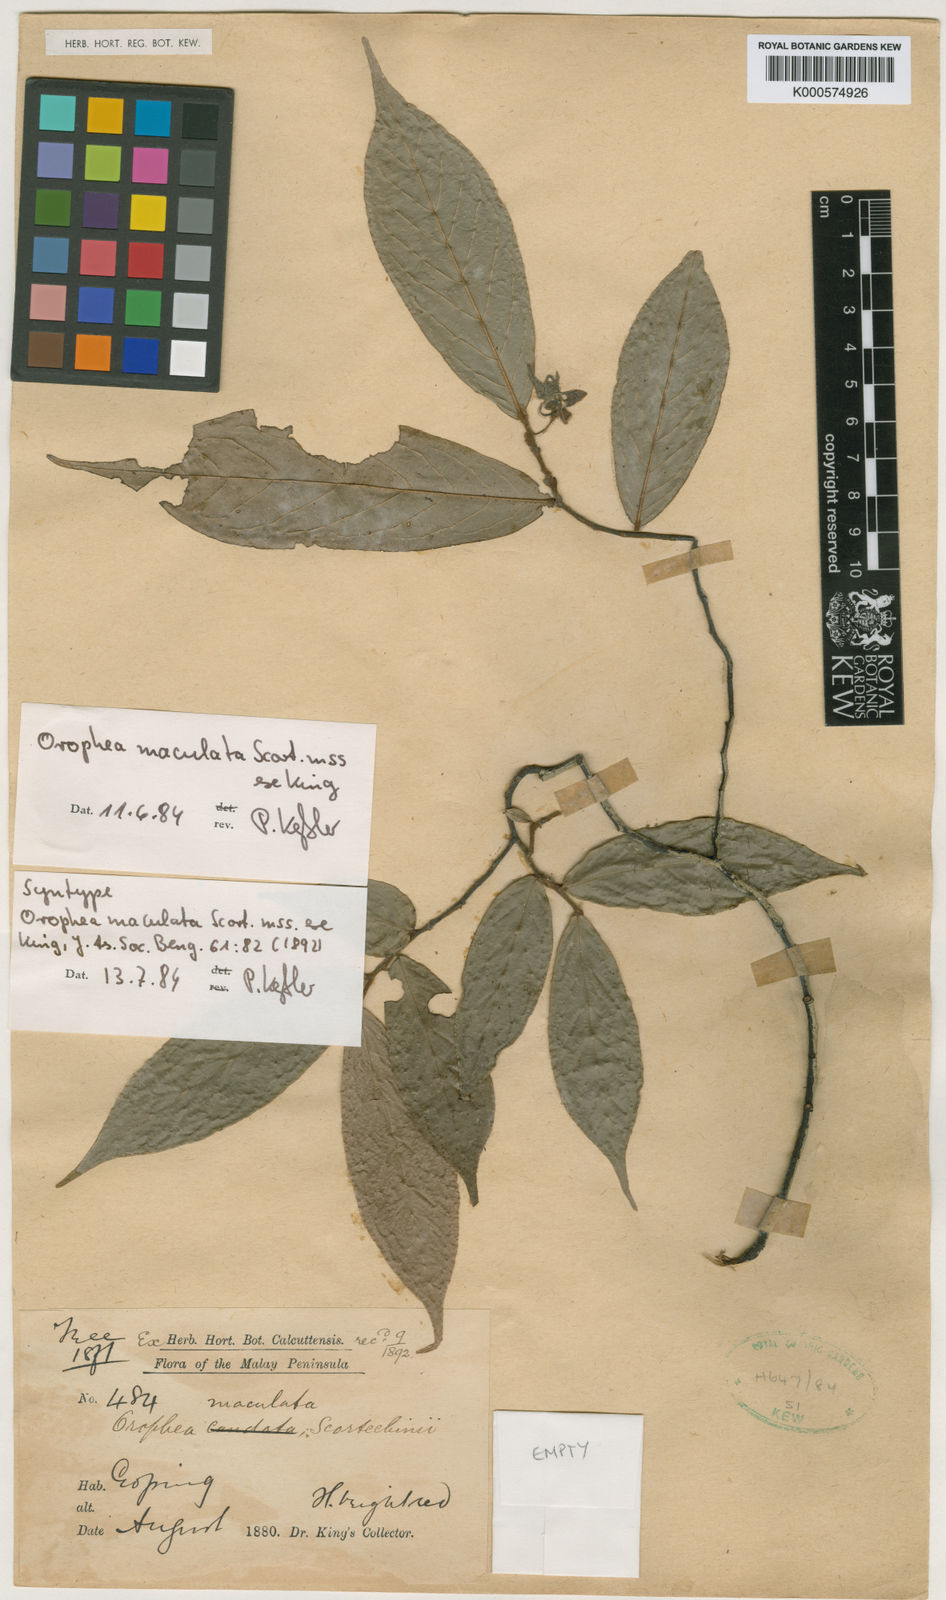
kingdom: Plantae
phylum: Tracheophyta
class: Magnoliopsida
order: Magnoliales
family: Annonaceae
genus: Orophea
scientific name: Orophea maculata
